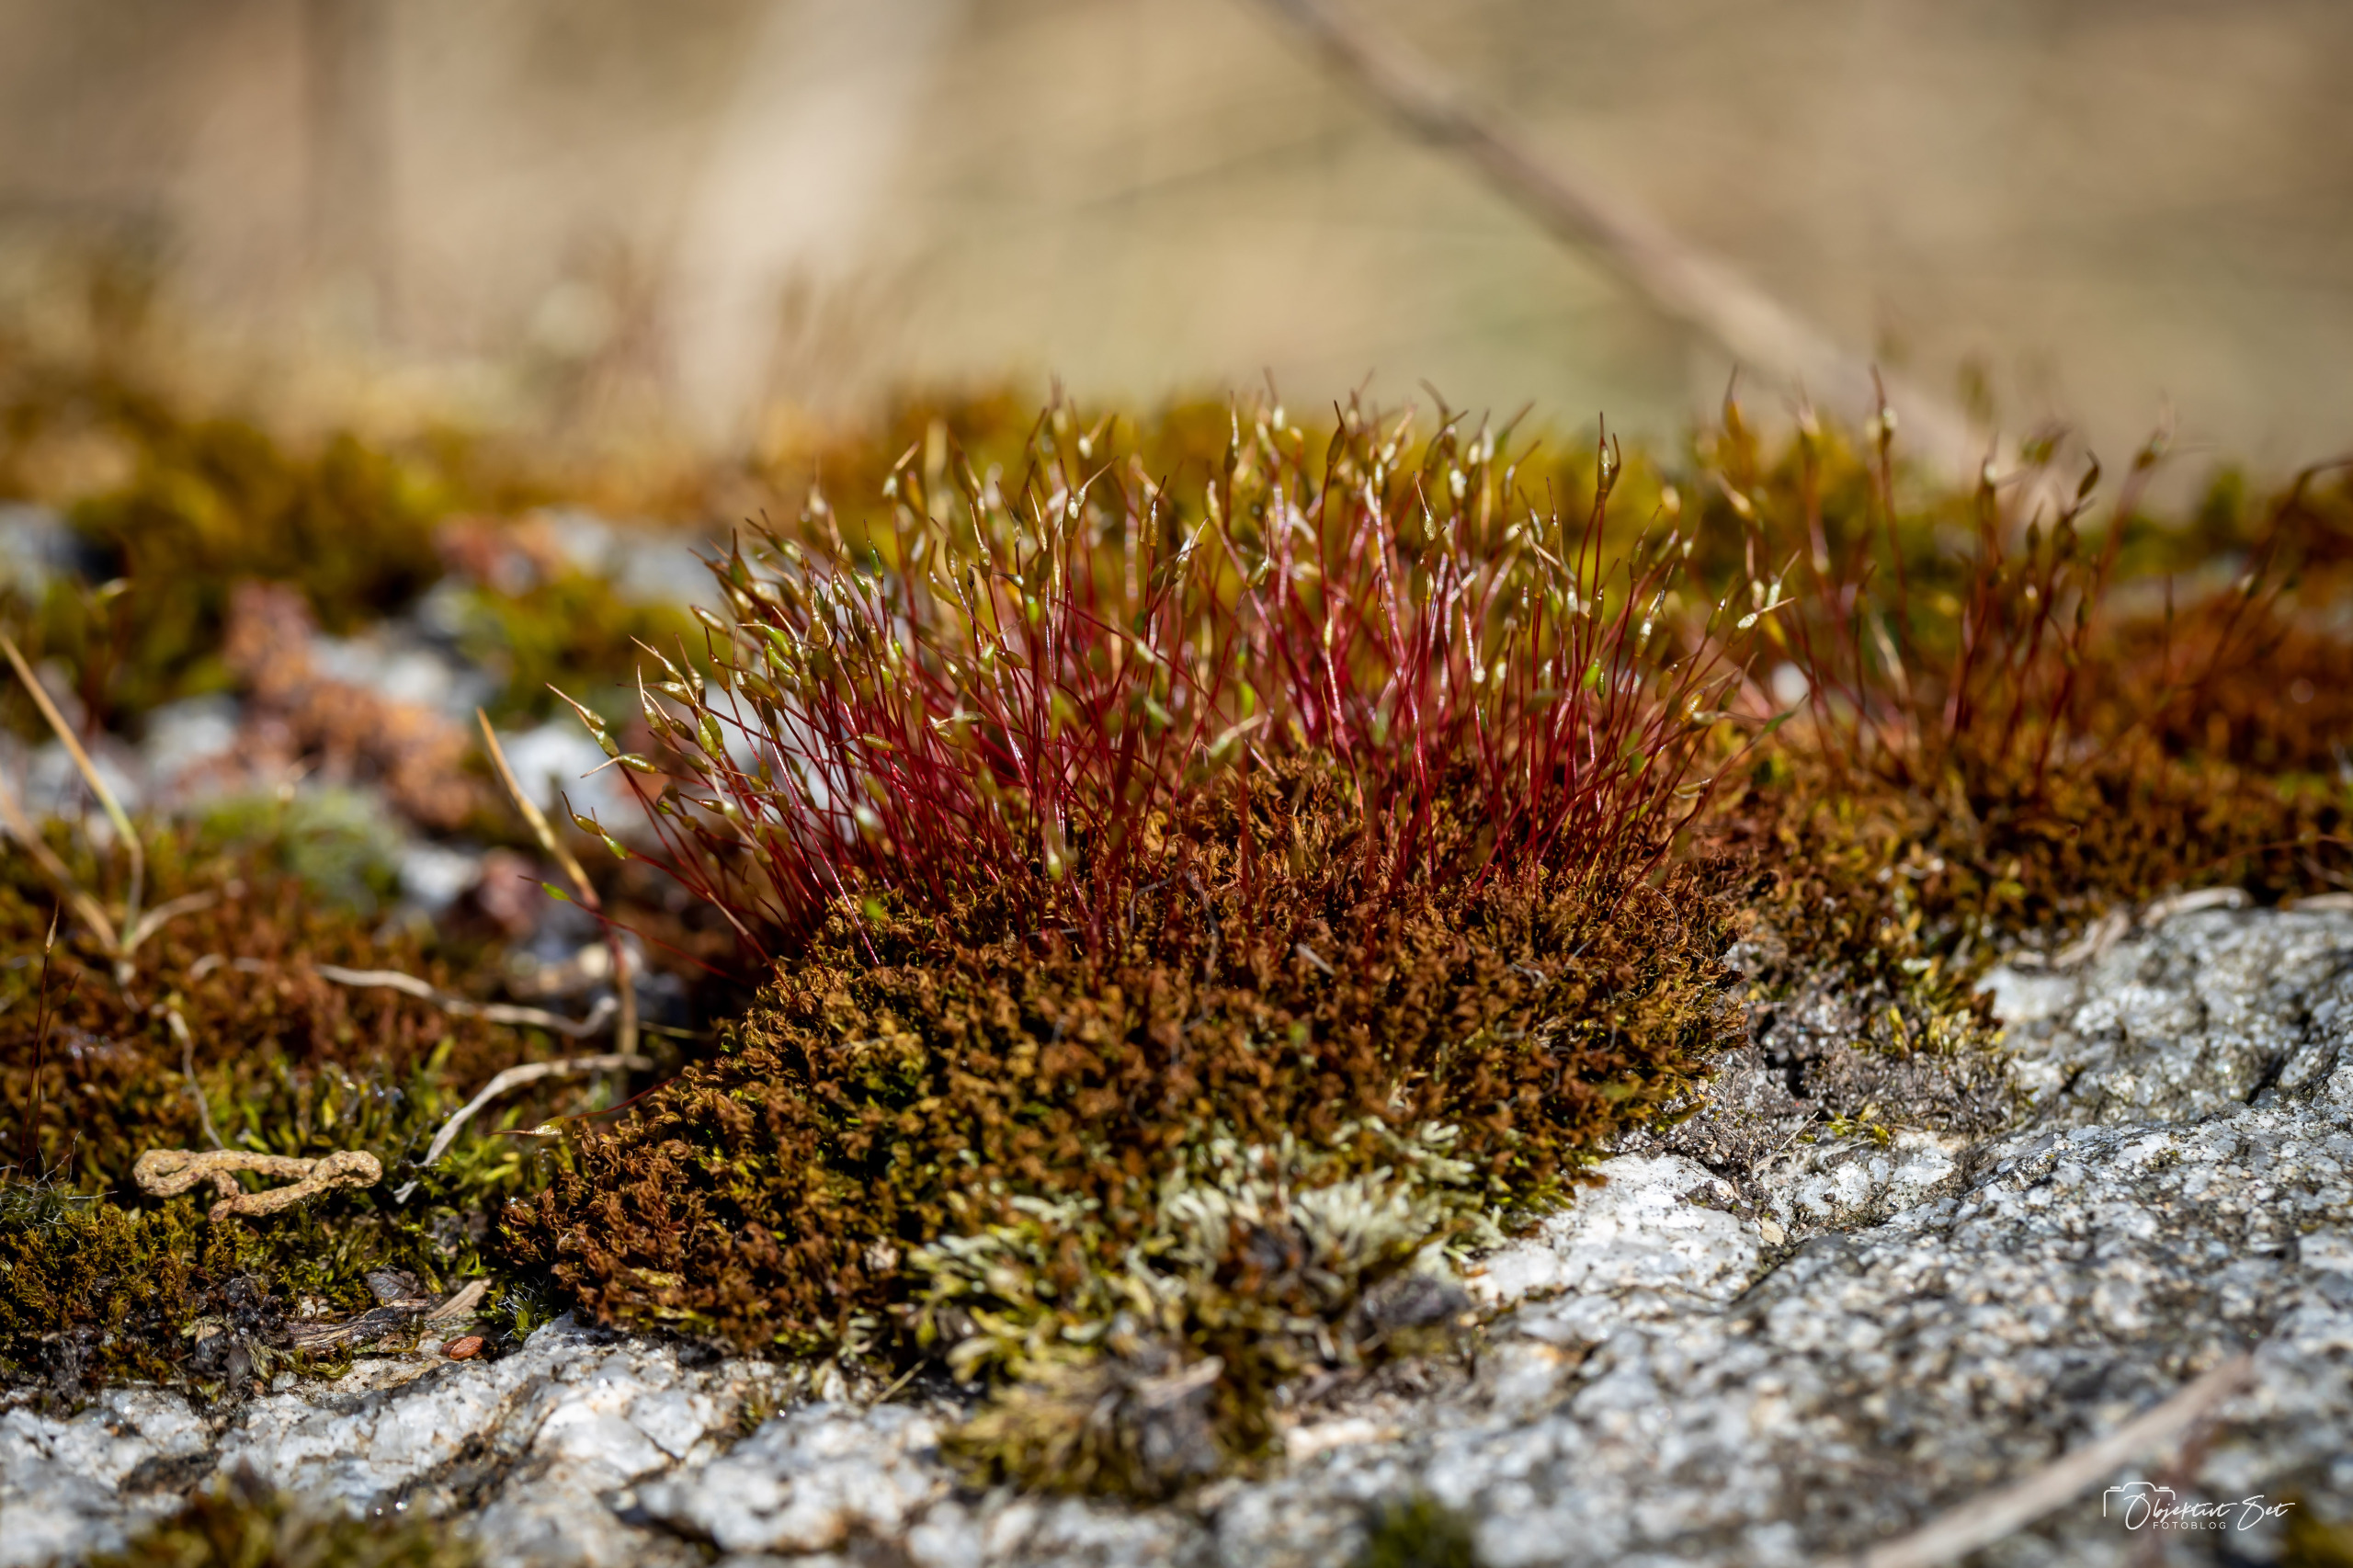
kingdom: Plantae
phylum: Bryophyta
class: Bryopsida
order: Dicranales
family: Ditrichaceae
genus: Ceratodon
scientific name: Ceratodon purpureus
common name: Rød horntand
